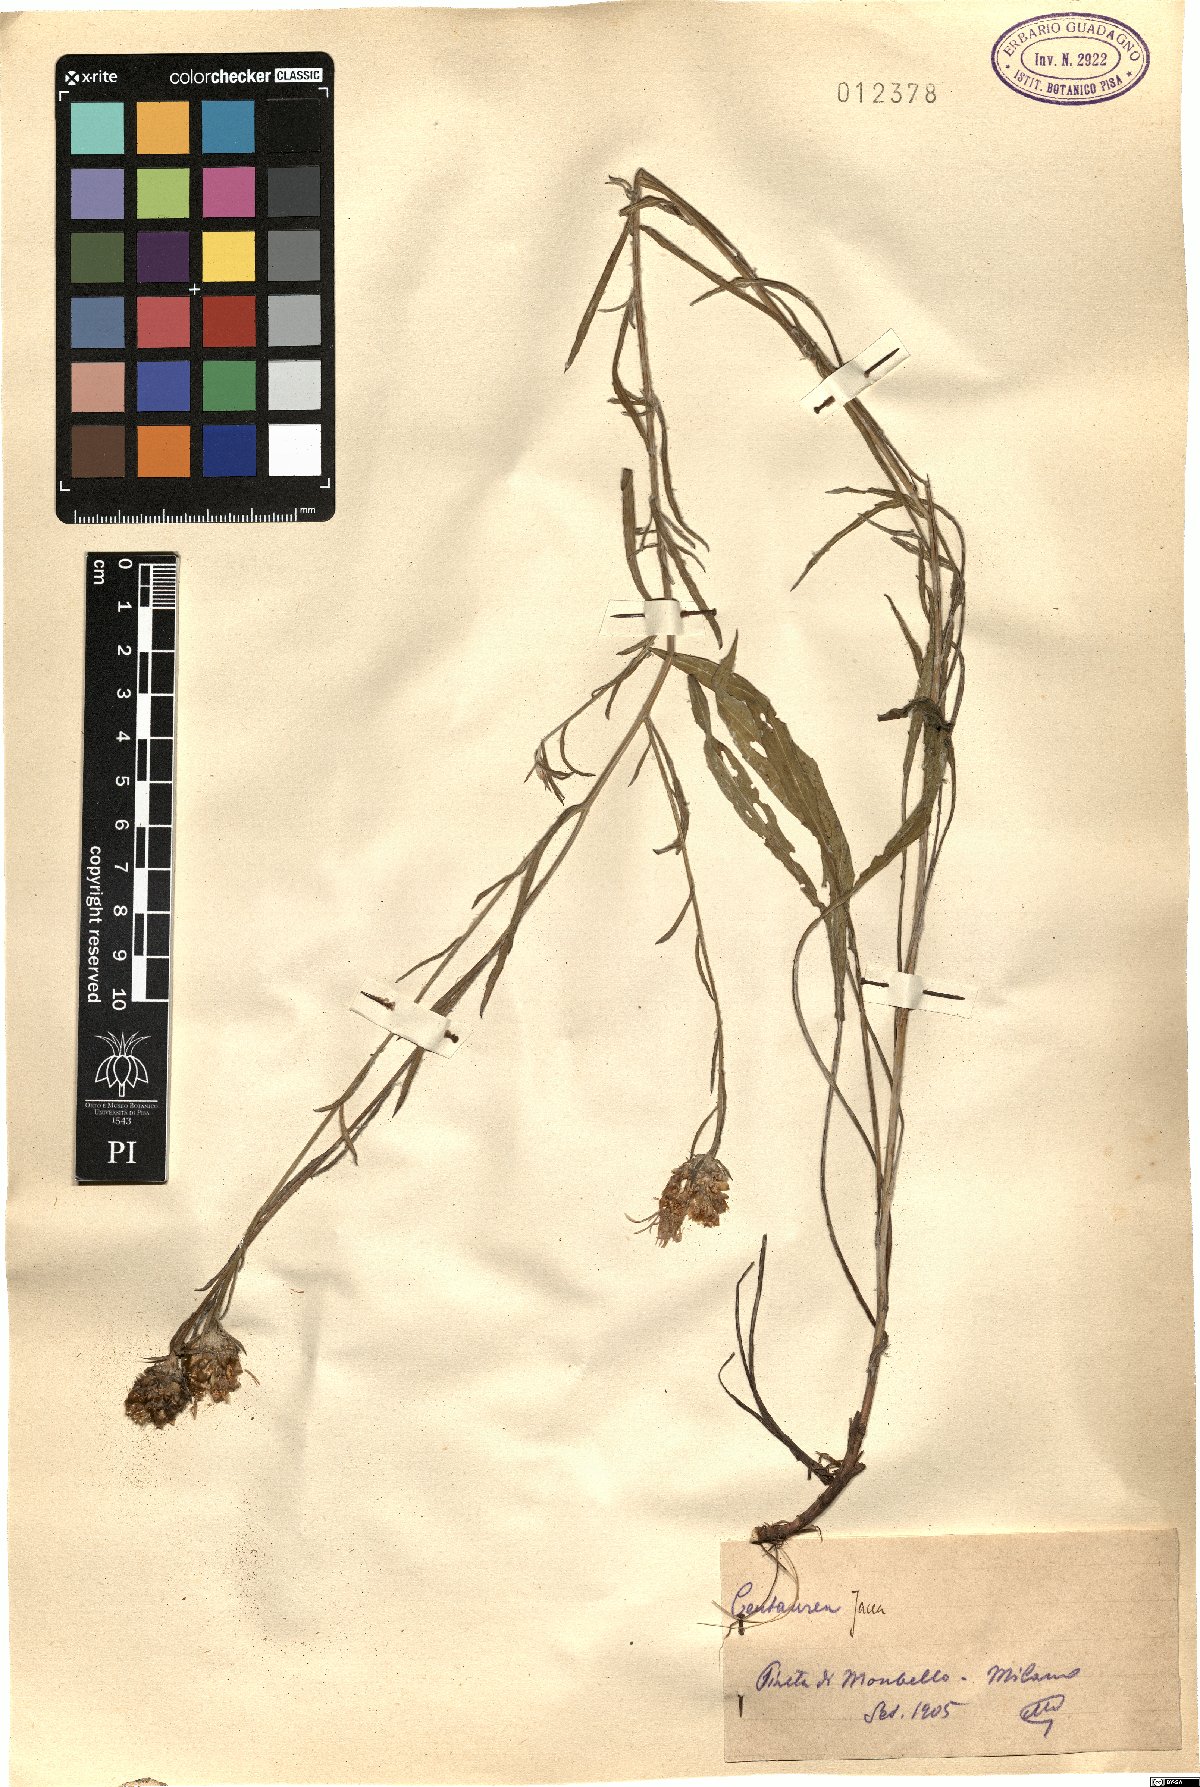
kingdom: Plantae
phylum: Tracheophyta
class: Magnoliopsida
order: Asterales
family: Asteraceae
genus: Centaurea
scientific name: Centaurea jacea
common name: Brown knapweed
